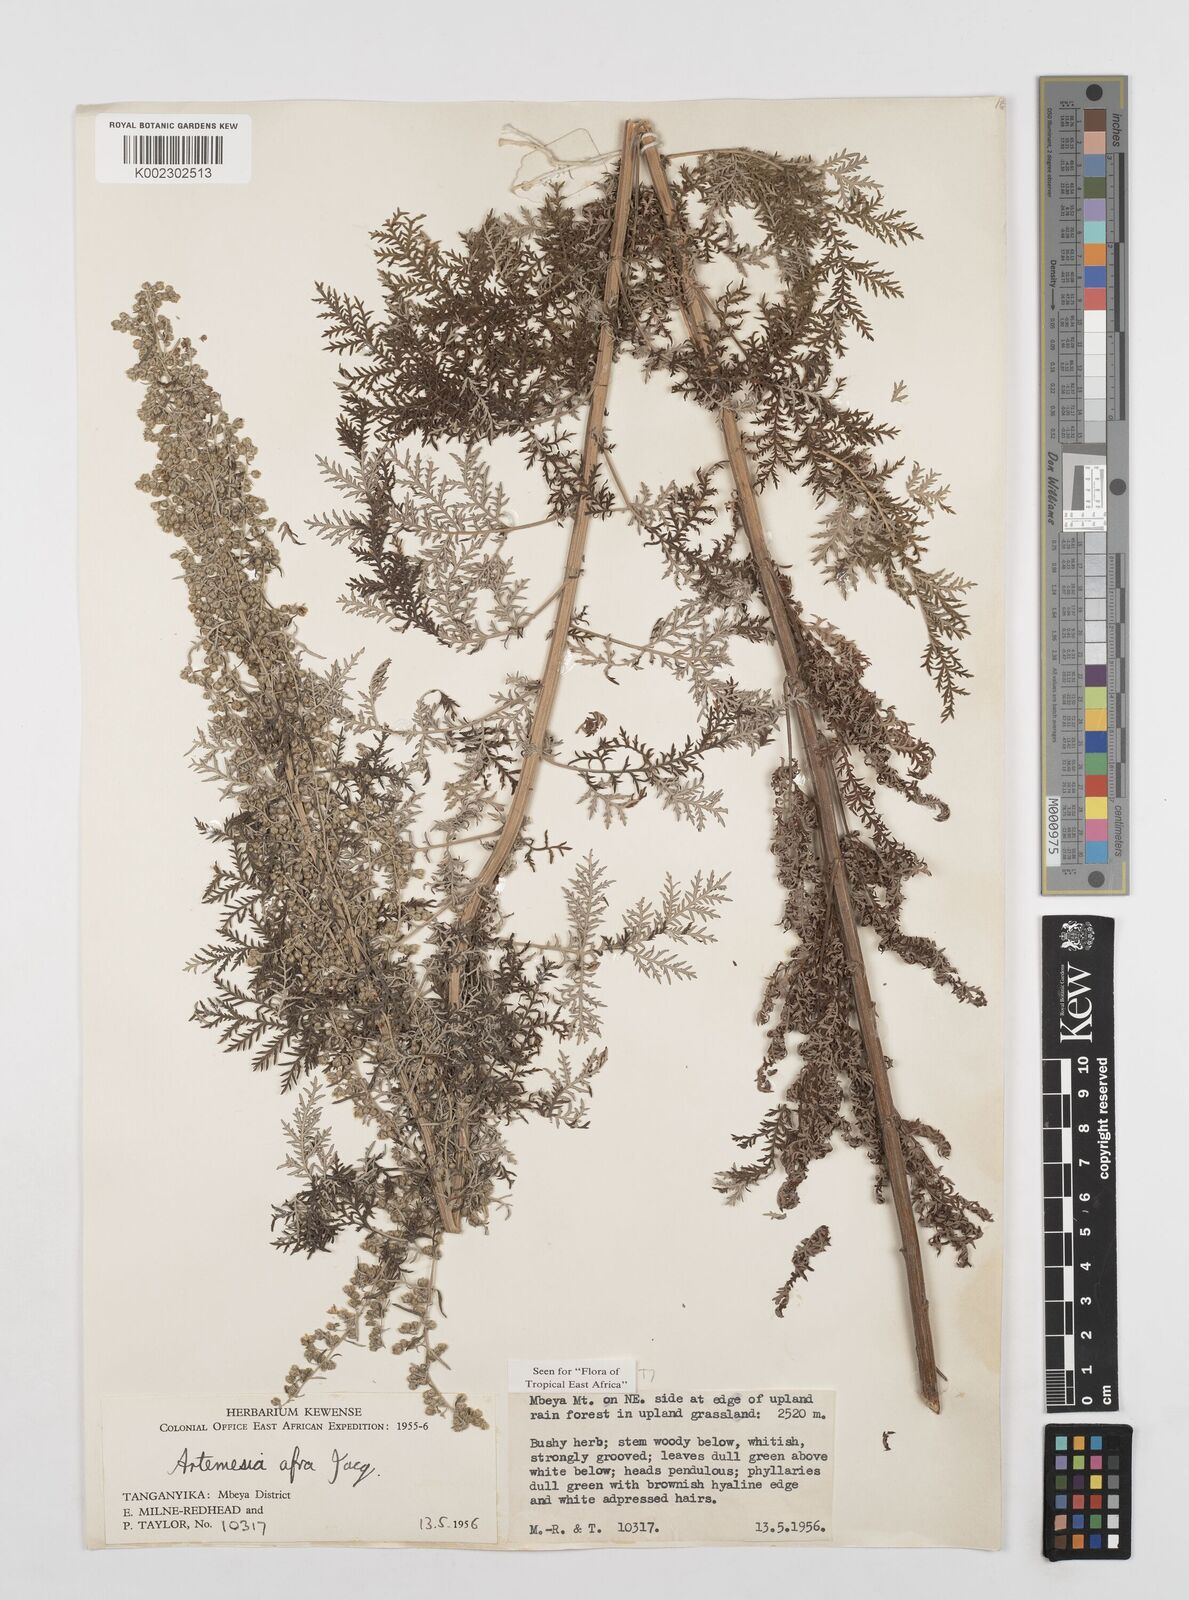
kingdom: Plantae
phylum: Tracheophyta
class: Magnoliopsida
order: Asterales
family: Asteraceae
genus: Artemisia
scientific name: Artemisia afra
